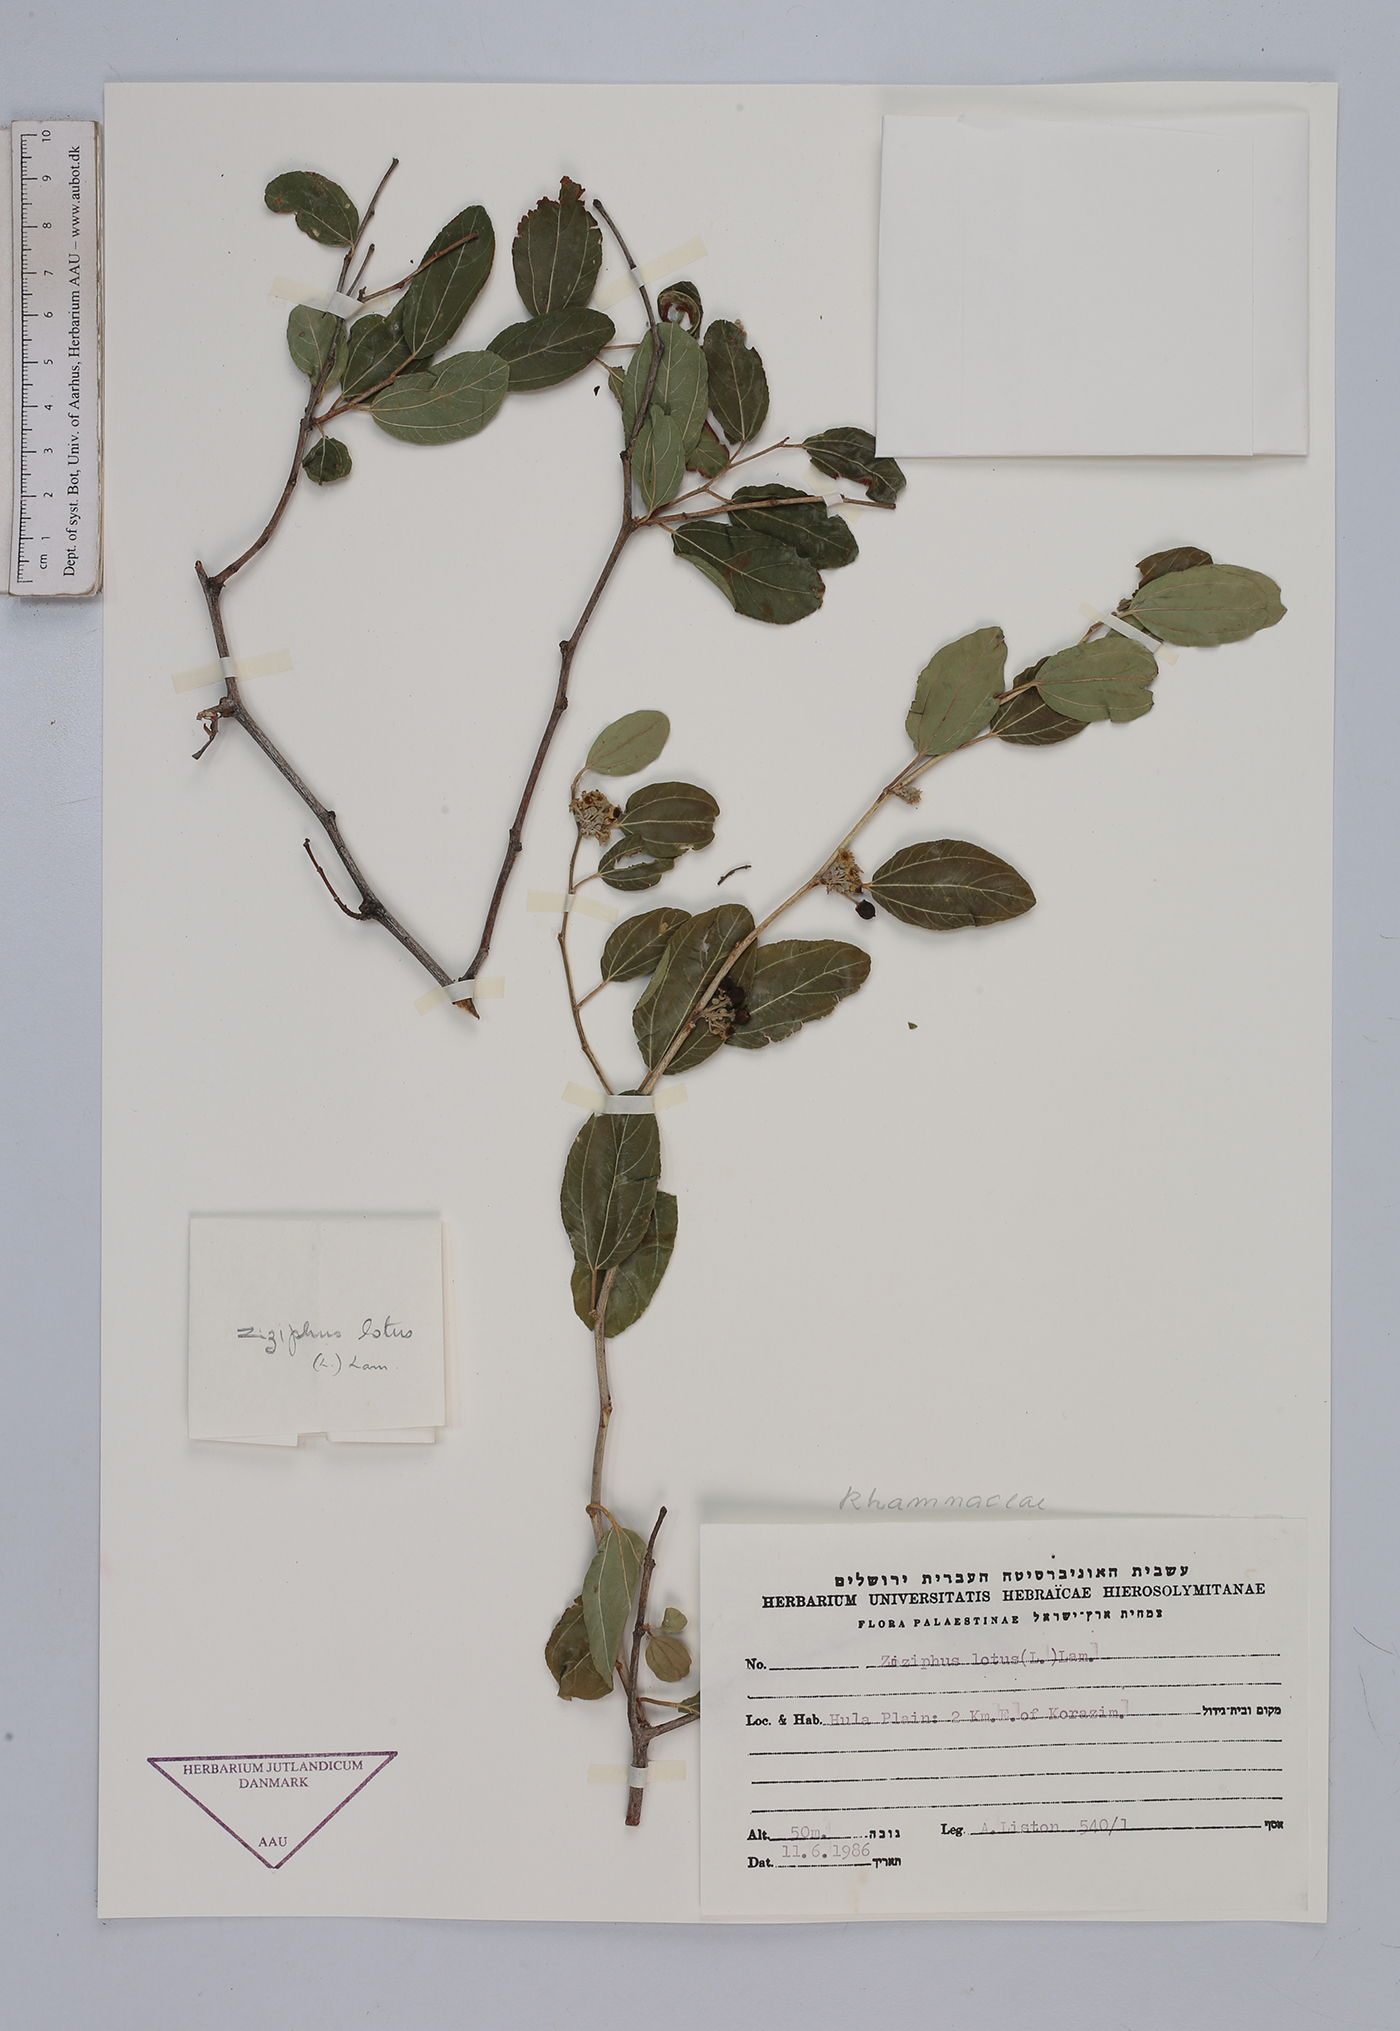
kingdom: Plantae
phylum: Tracheophyta
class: Magnoliopsida
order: Rosales
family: Rhamnaceae
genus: Ziziphus
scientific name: Ziziphus lotus
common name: Lotus
